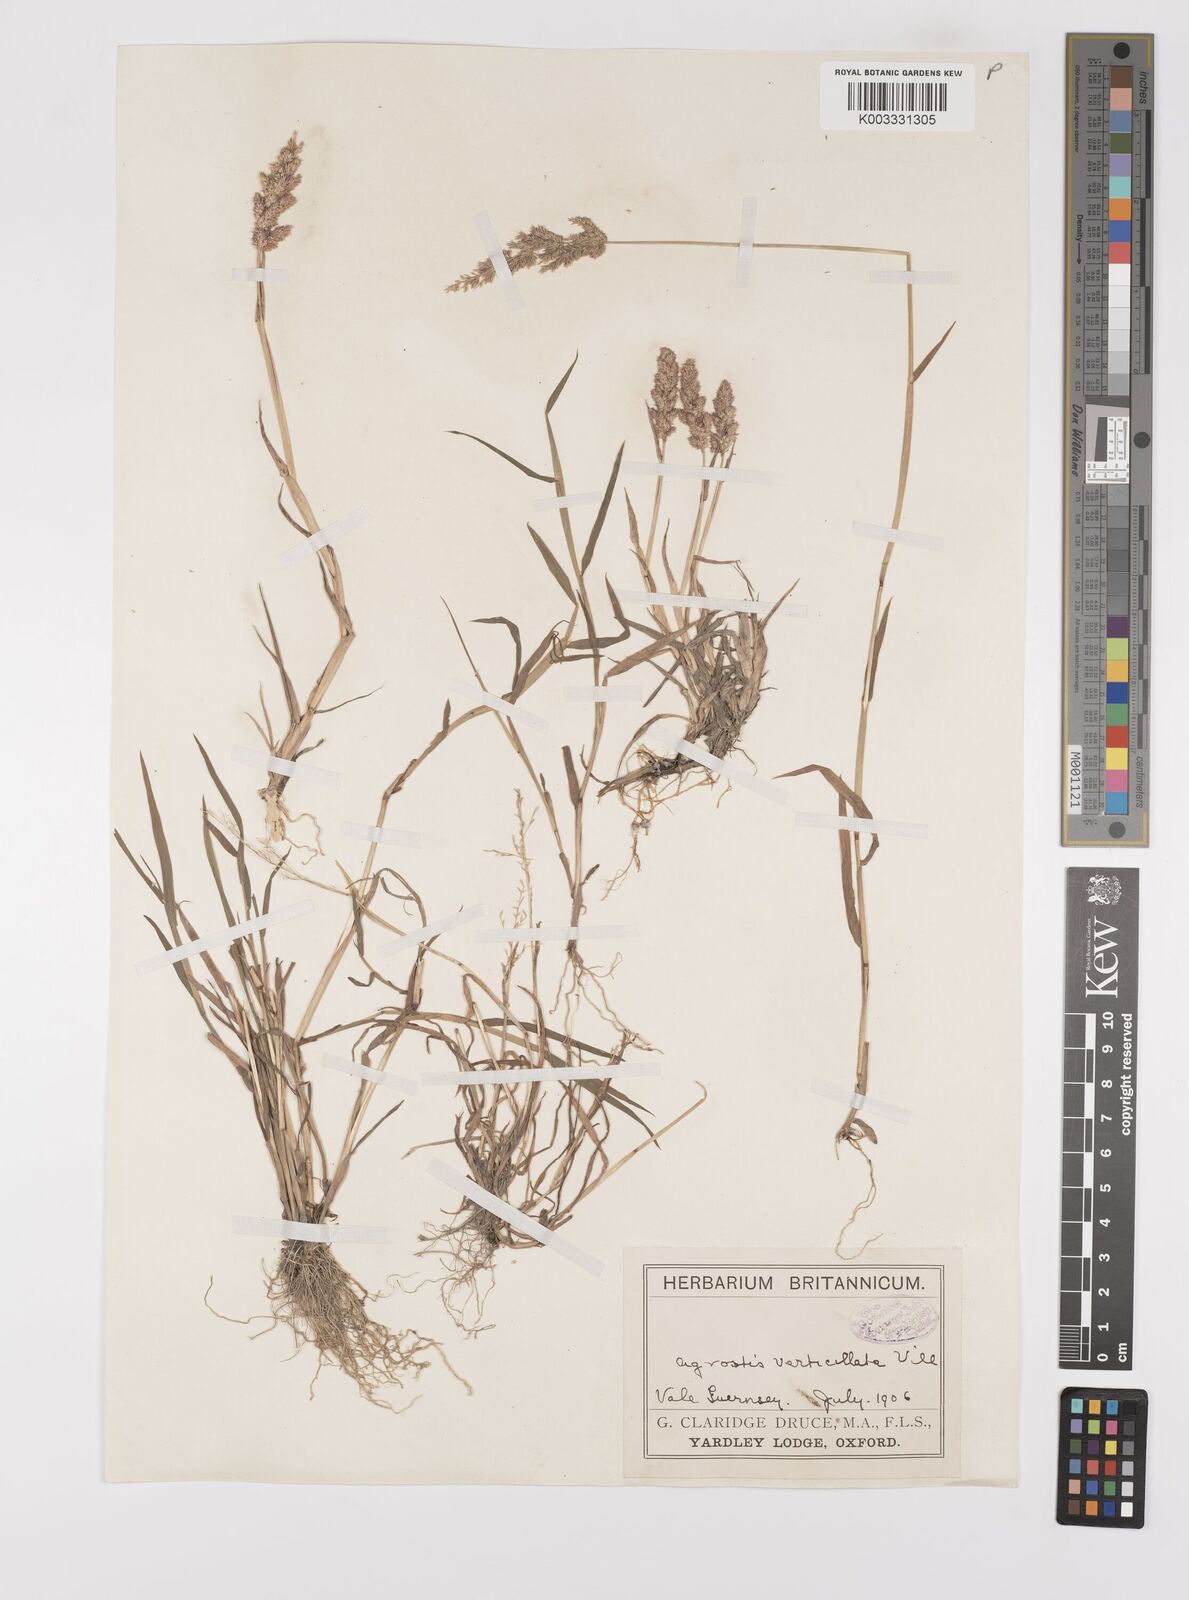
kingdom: Plantae
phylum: Tracheophyta
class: Liliopsida
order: Poales
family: Poaceae
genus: Polypogon
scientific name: Polypogon viridis
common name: Water bent
